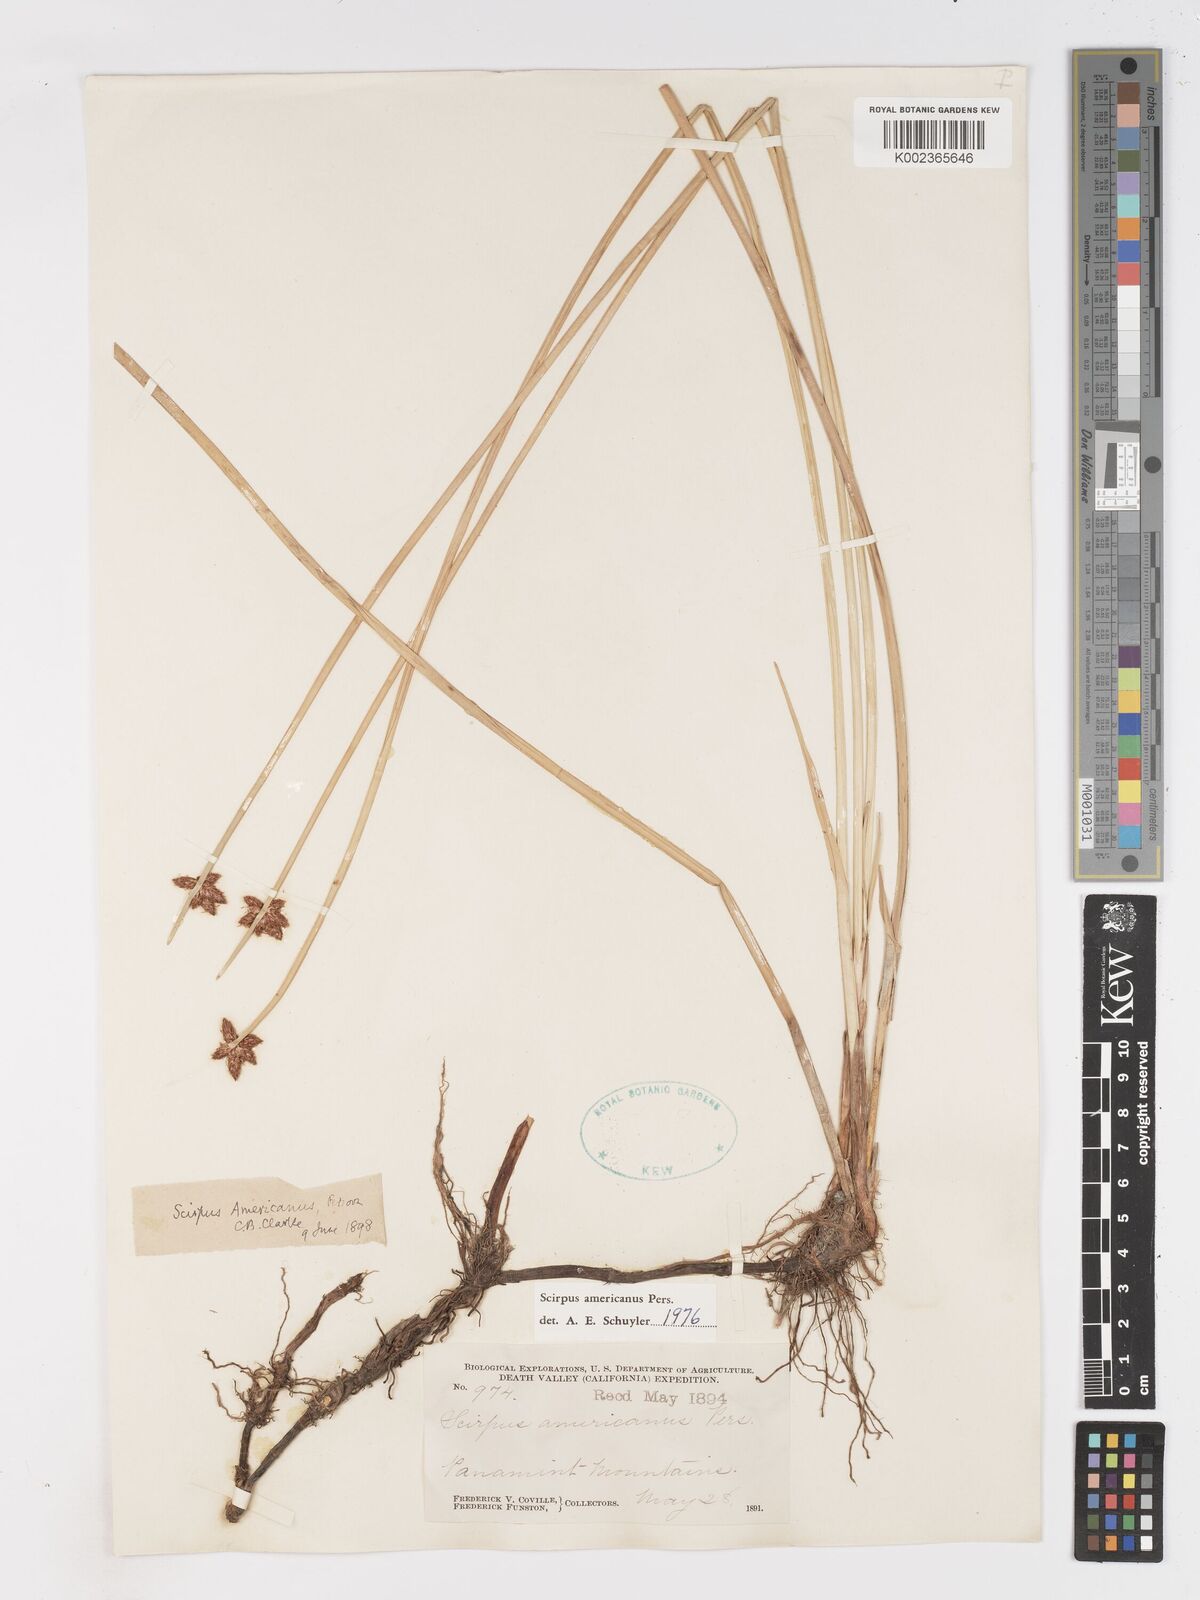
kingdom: Plantae
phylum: Tracheophyta
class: Liliopsida
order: Poales
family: Cyperaceae
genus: Schoenoplectus
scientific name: Schoenoplectus americanus
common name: American three-square bulrush
